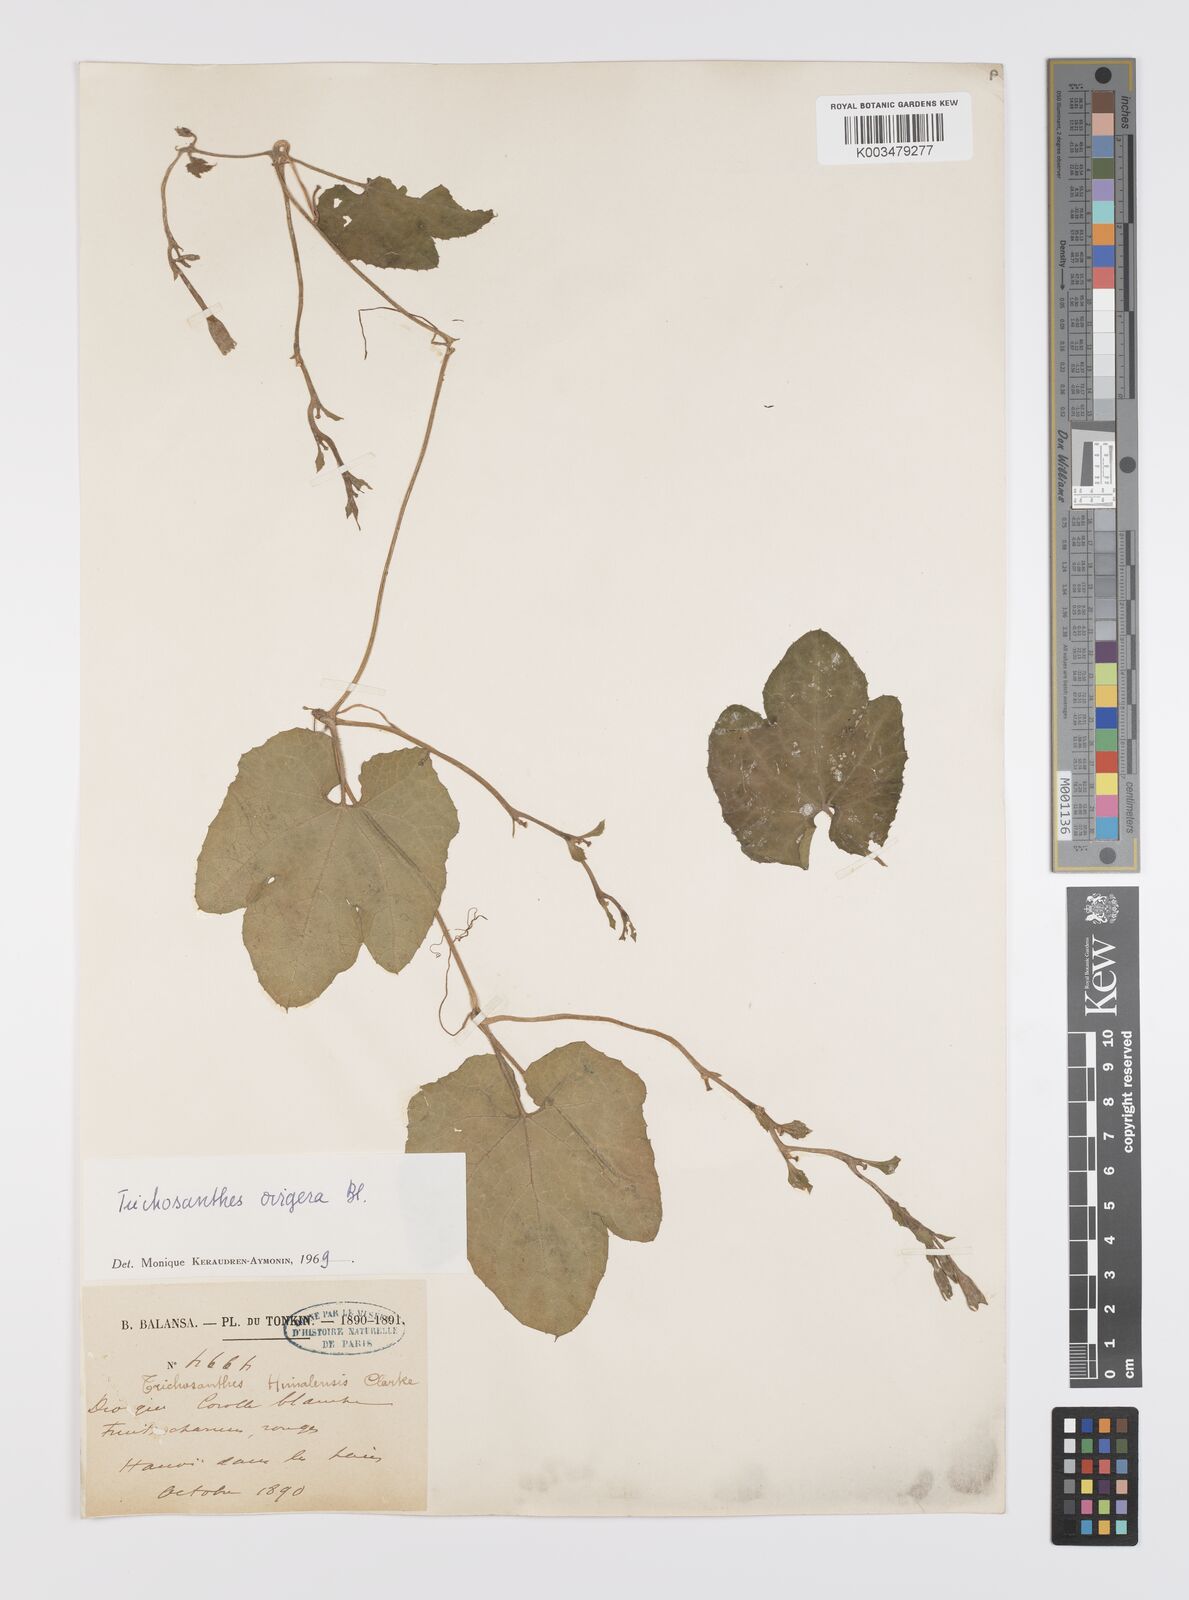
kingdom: Plantae
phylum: Tracheophyta
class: Magnoliopsida
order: Cucurbitales
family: Cucurbitaceae
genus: Trichosanthes
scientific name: Trichosanthes ovigera
